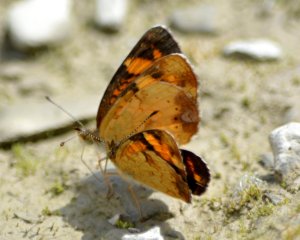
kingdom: Animalia
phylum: Arthropoda
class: Insecta
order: Lepidoptera
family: Nymphalidae
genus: Phyciodes
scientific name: Phyciodes tharos
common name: Northern Crescent
